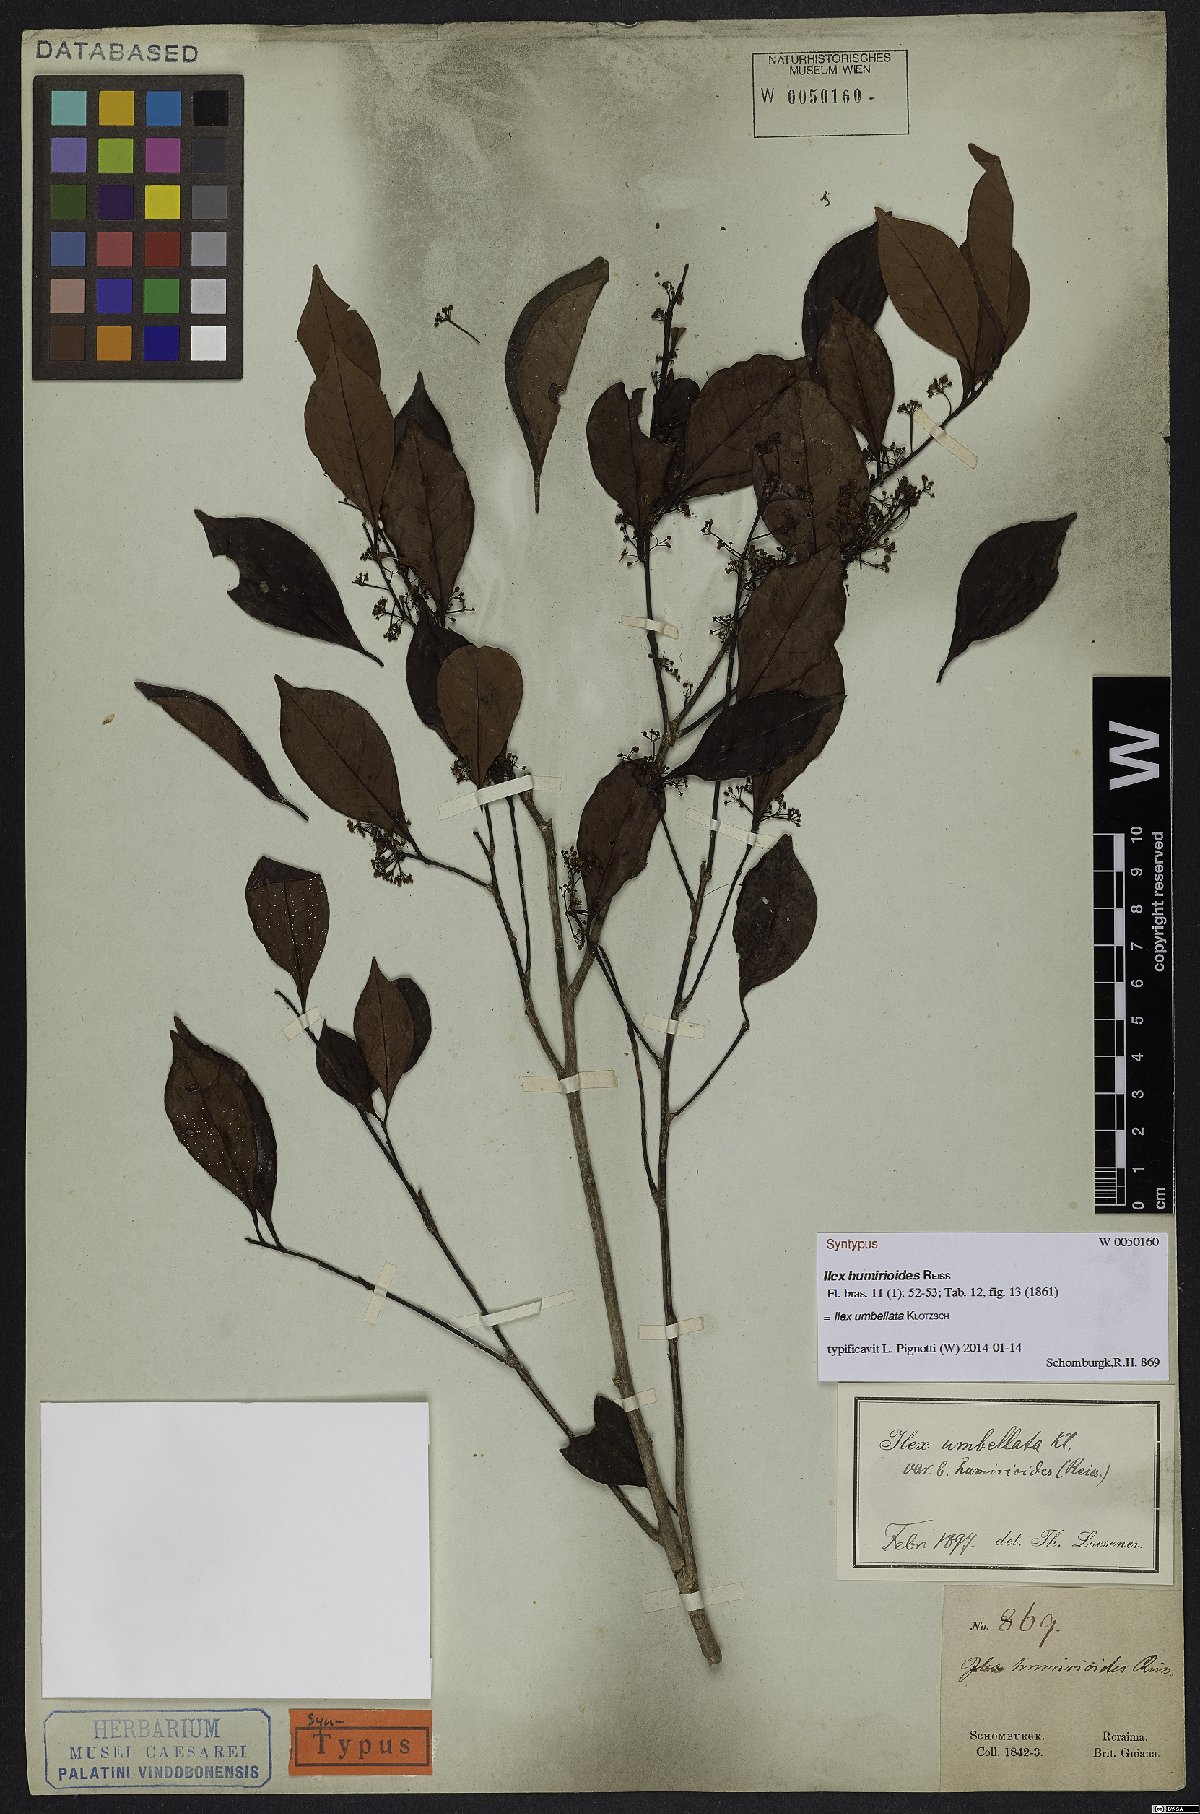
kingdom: Plantae
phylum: Tracheophyta
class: Magnoliopsida
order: Aquifoliales
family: Aquifoliaceae
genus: Ilex
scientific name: Ilex umbellata
